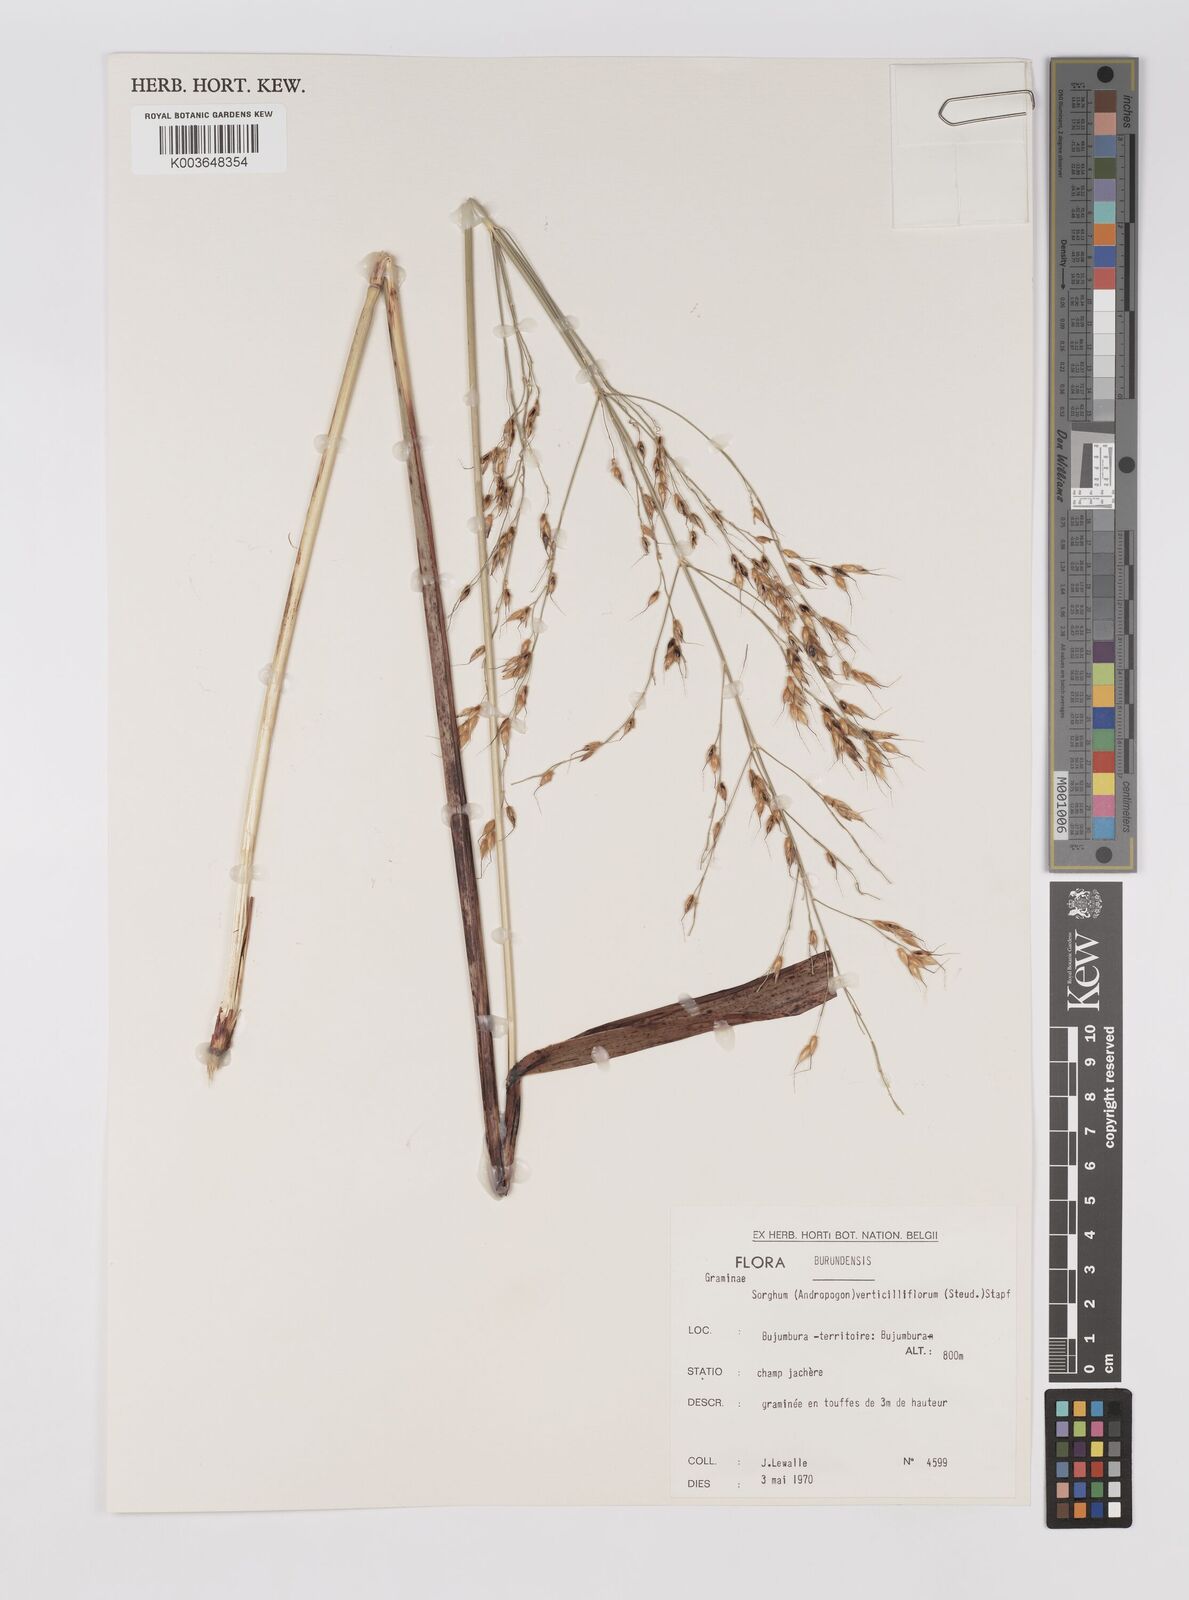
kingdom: Plantae
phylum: Tracheophyta
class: Liliopsida
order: Poales
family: Poaceae
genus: Sorghum
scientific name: Sorghum arundinaceum
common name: Sorghum
